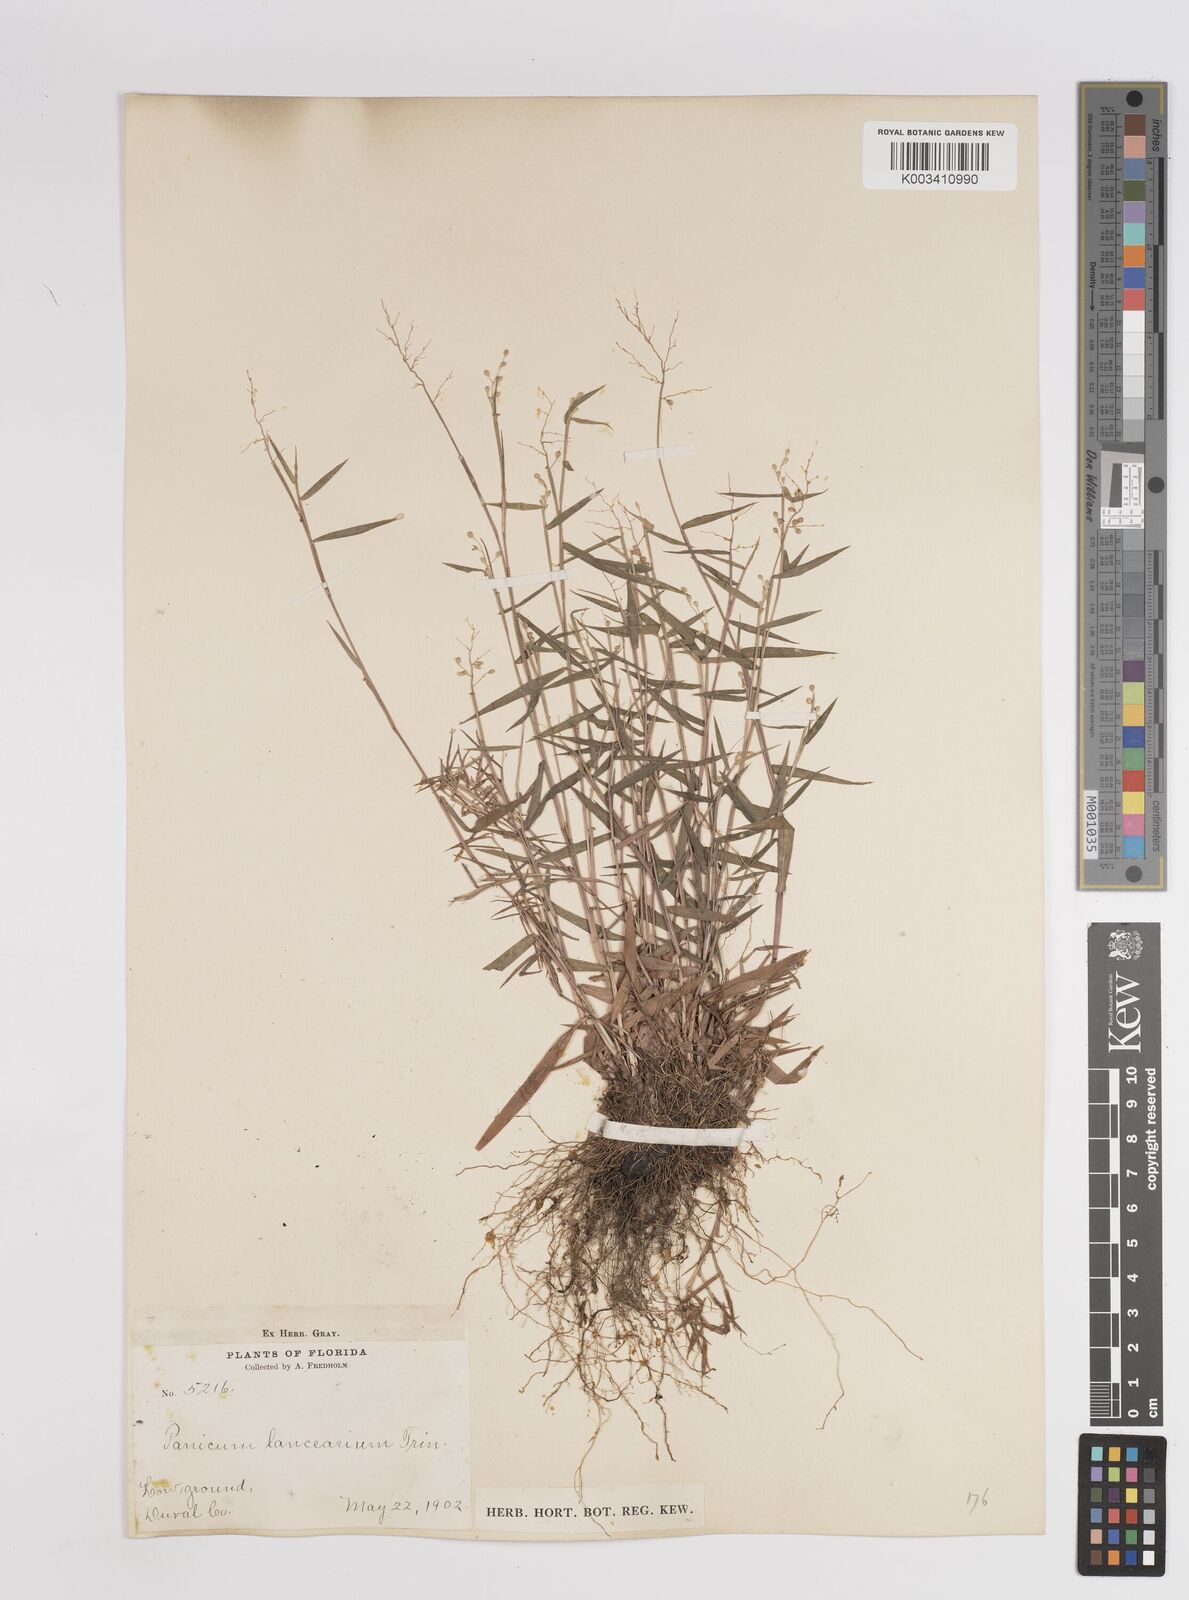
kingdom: Plantae
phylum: Tracheophyta
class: Liliopsida
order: Poales
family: Poaceae
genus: Dichanthelium
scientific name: Dichanthelium portoricense
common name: American panicgrass
